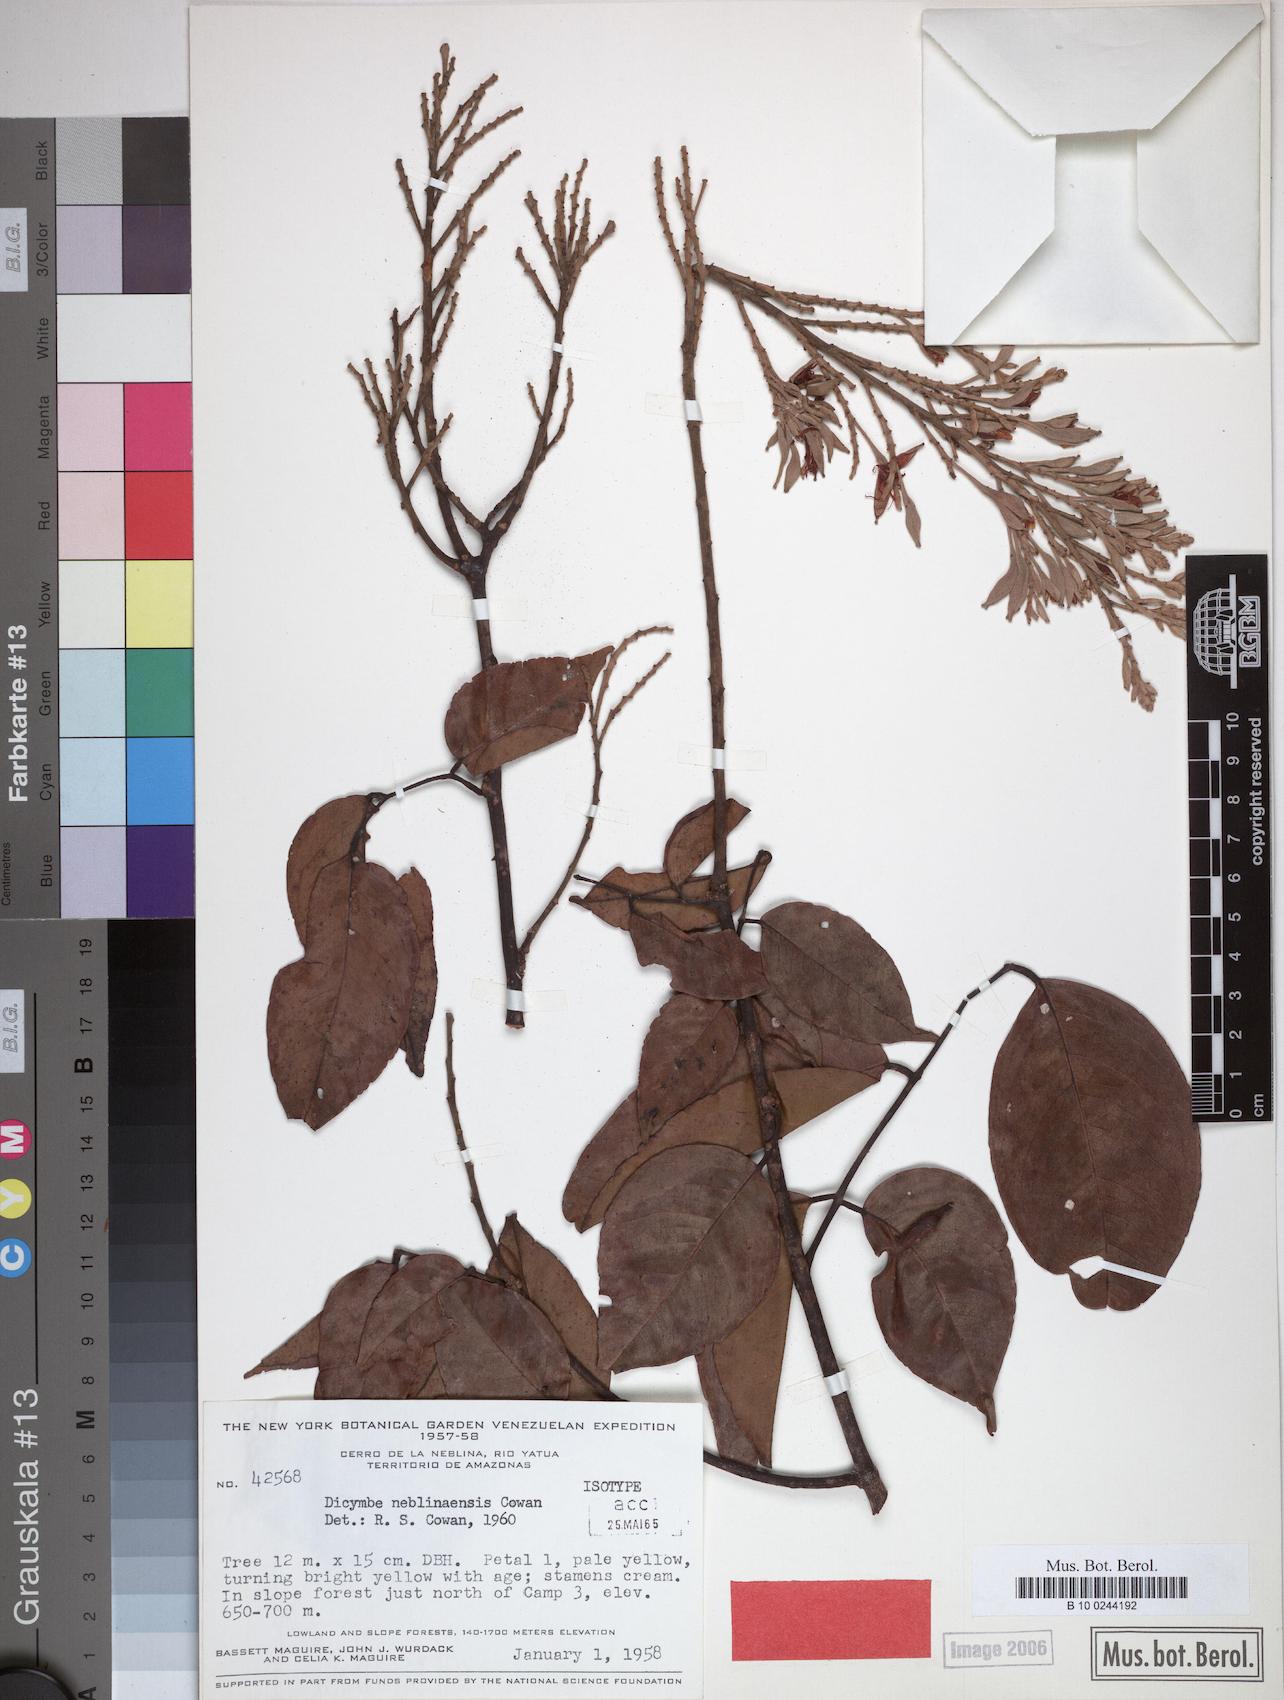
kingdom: Plantae
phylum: Tracheophyta
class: Magnoliopsida
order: Fabales
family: Fabaceae
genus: Dicymbe
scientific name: Dicymbe neblinensis
